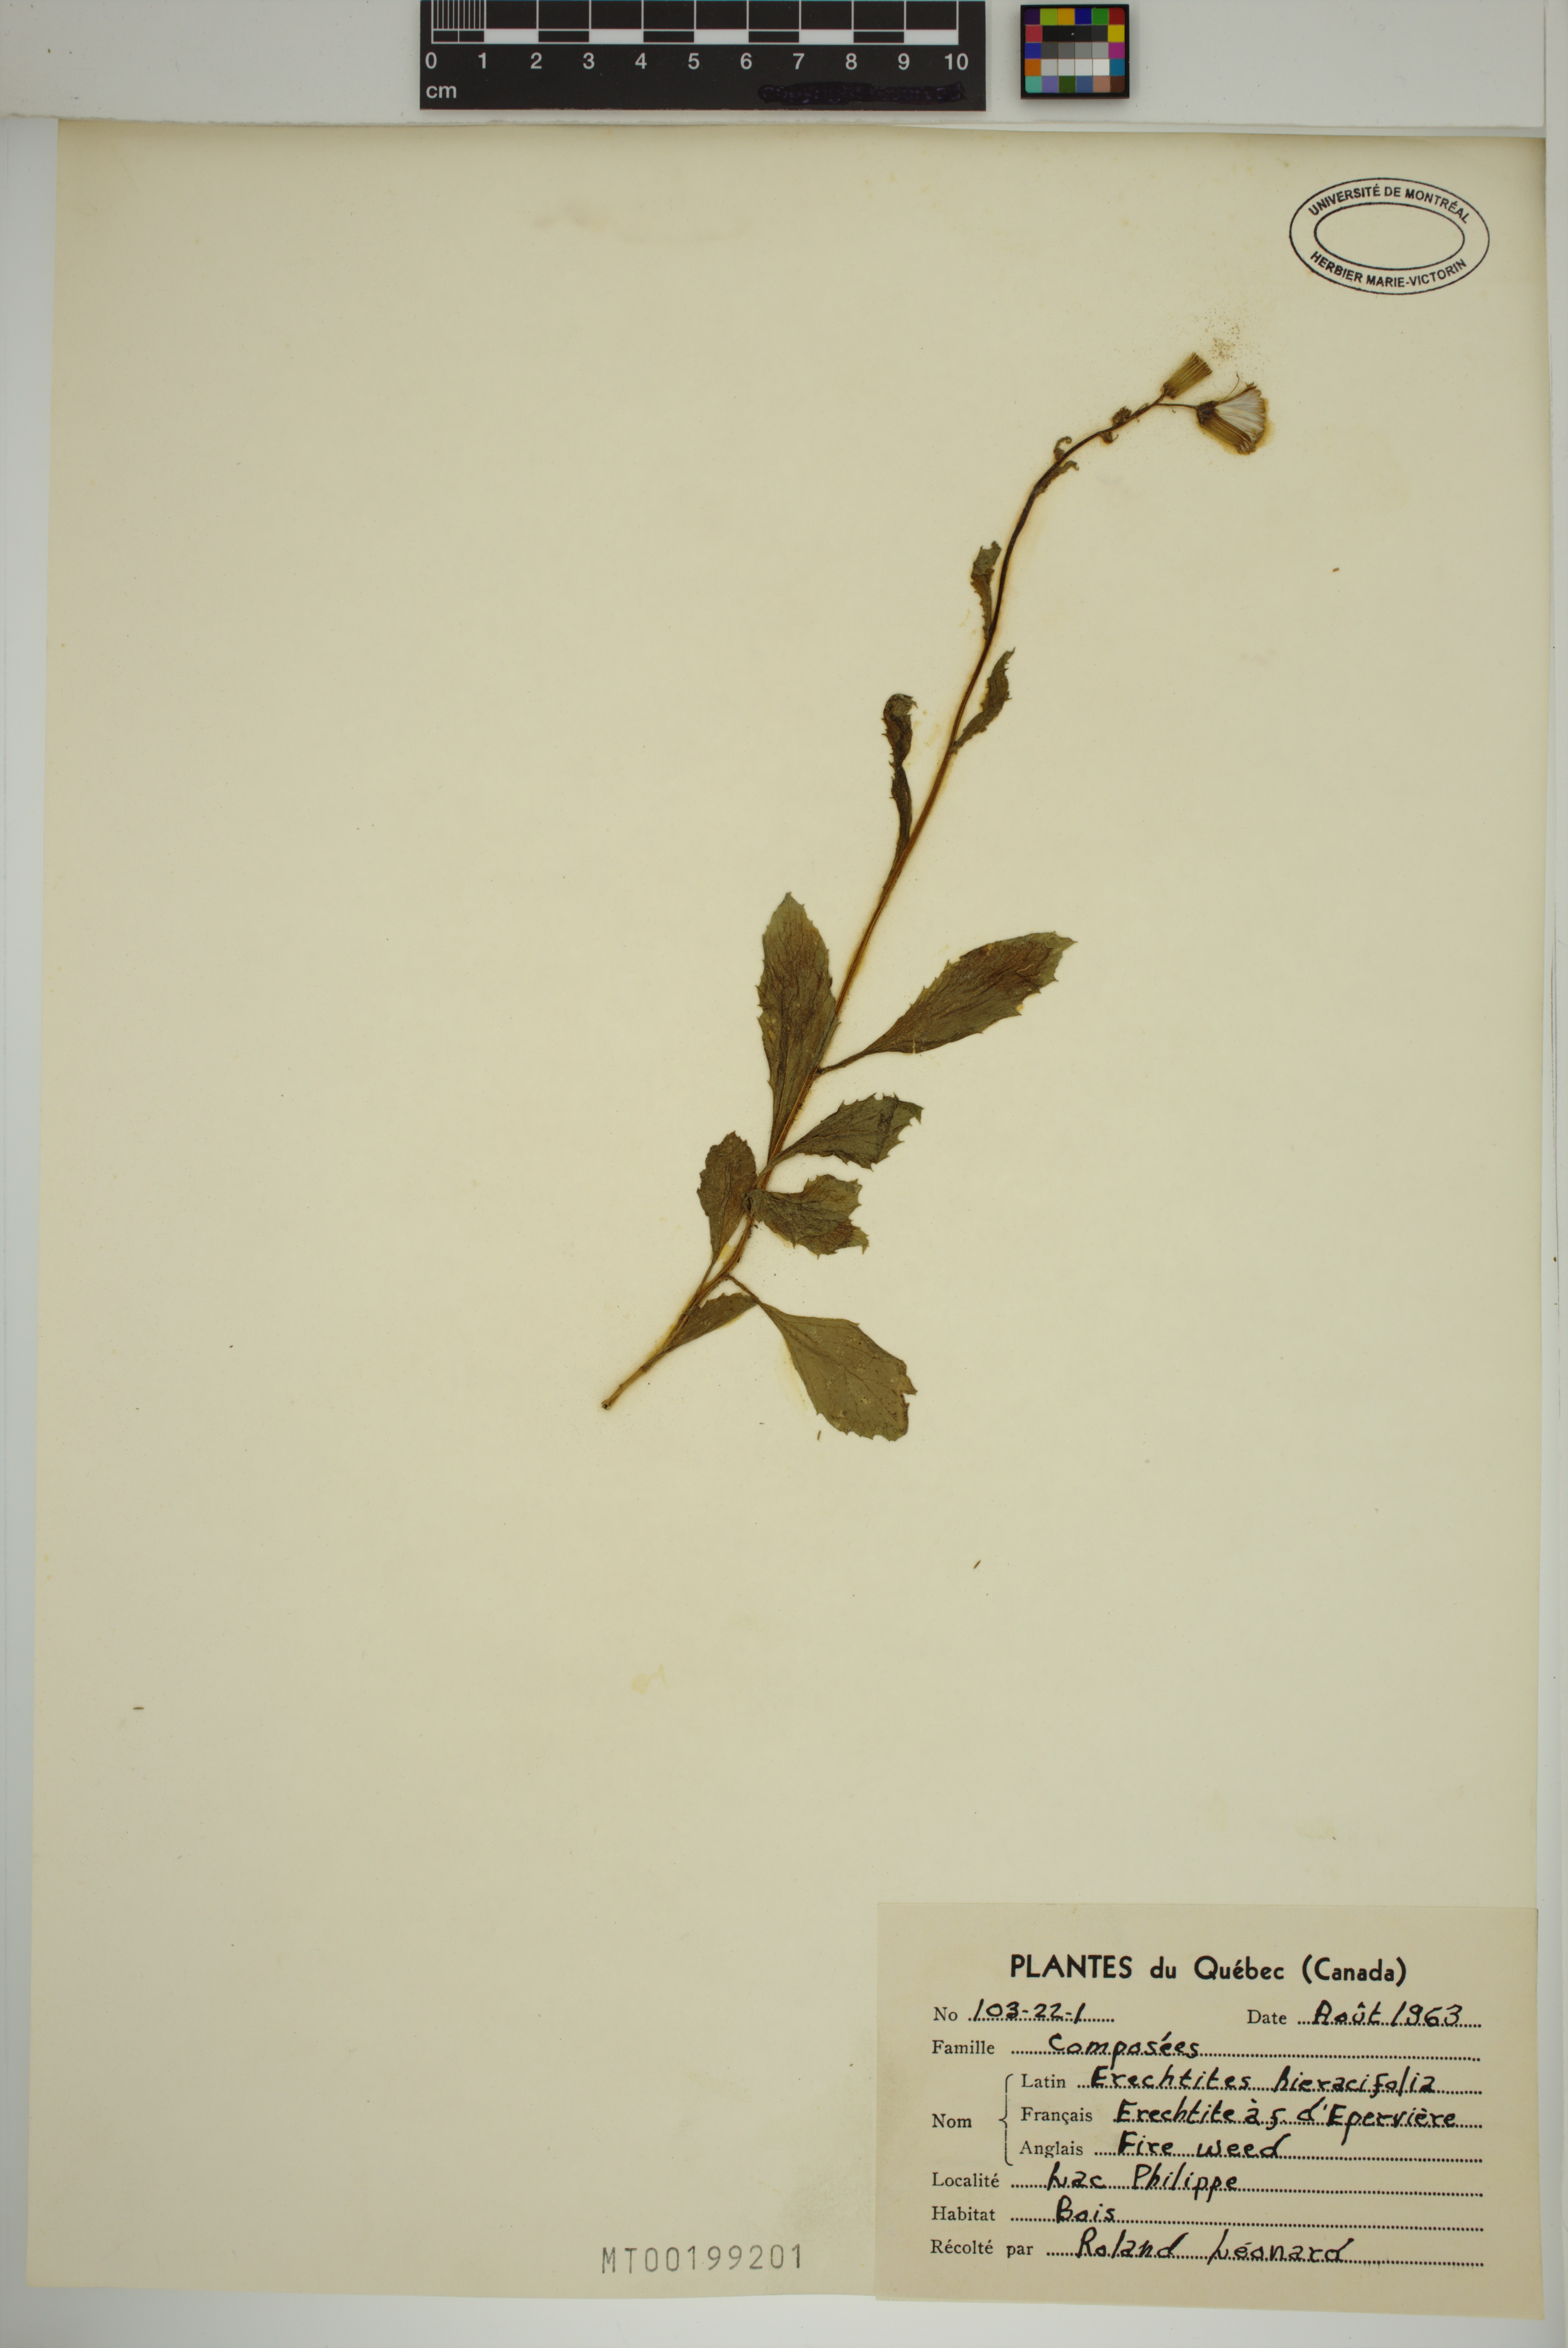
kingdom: Plantae
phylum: Tracheophyta
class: Magnoliopsida
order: Asterales
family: Asteraceae
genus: Erechtites
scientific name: Erechtites hieraciifolius
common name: American burnweed
